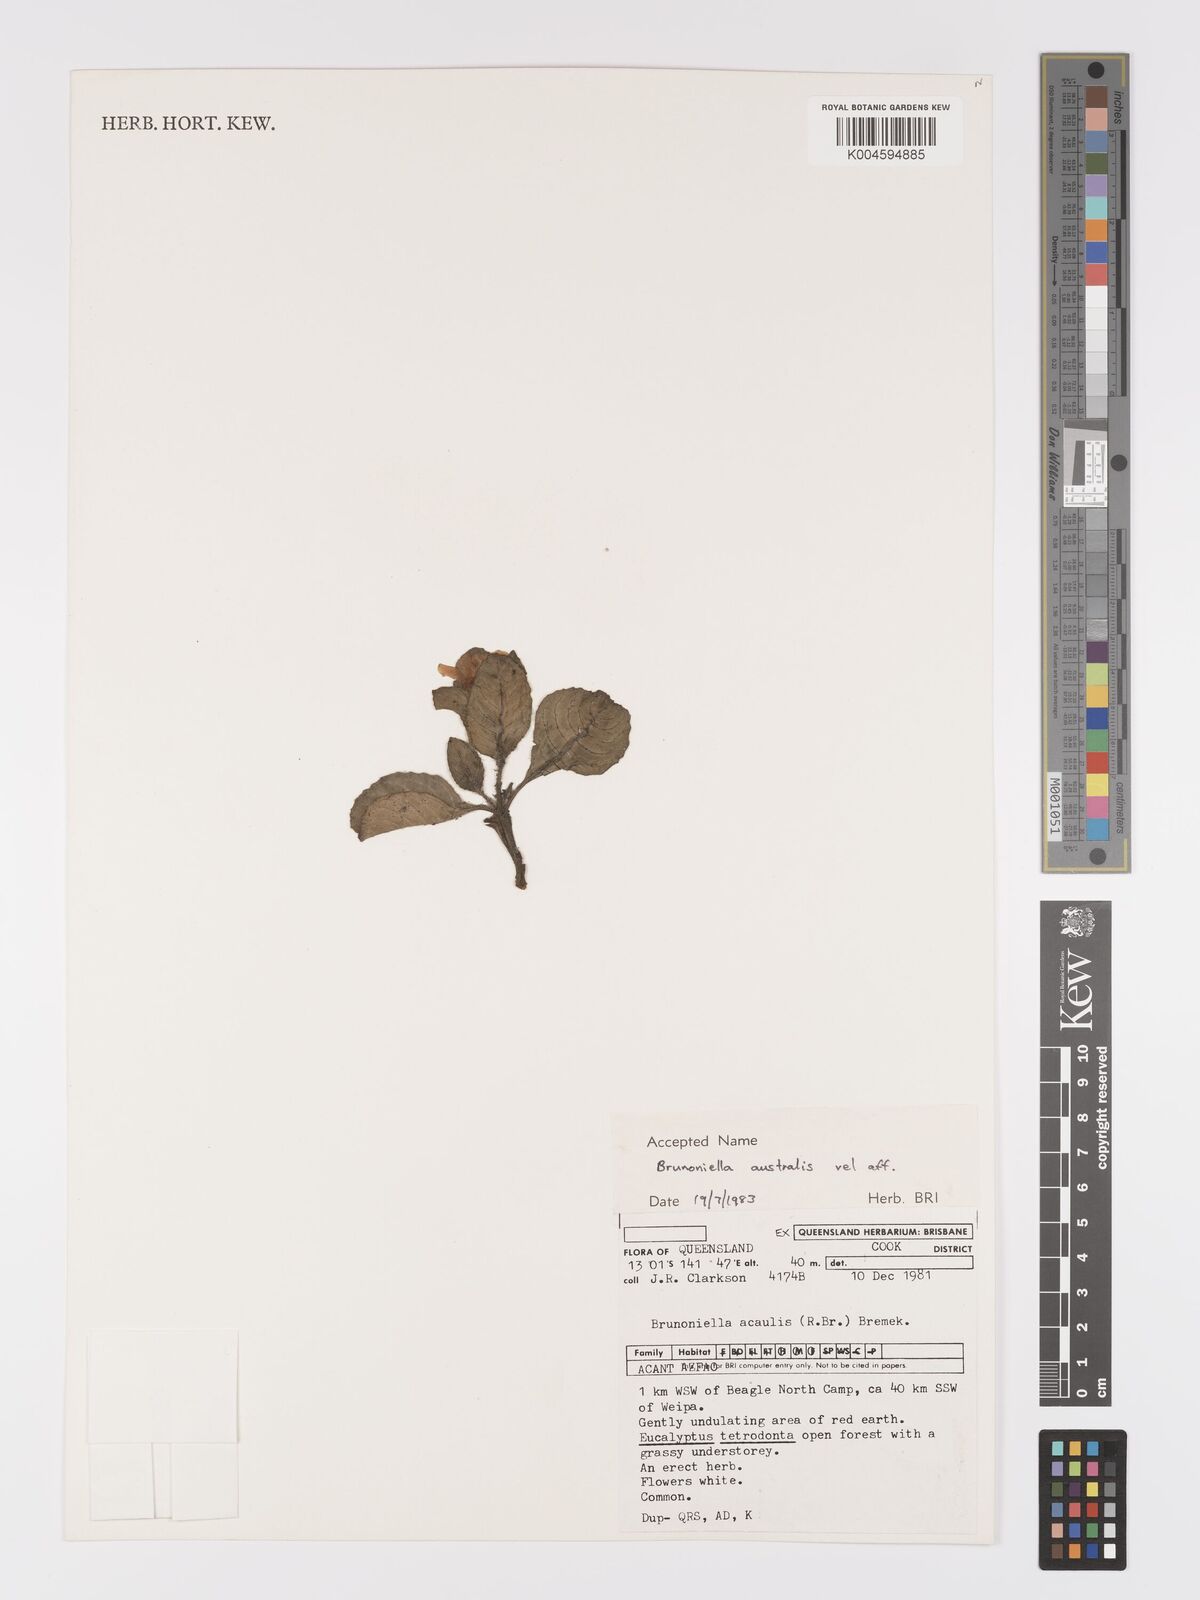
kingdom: Plantae
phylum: Tracheophyta
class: Magnoliopsida
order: Lamiales
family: Acanthaceae
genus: Brunoniella
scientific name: Brunoniella
